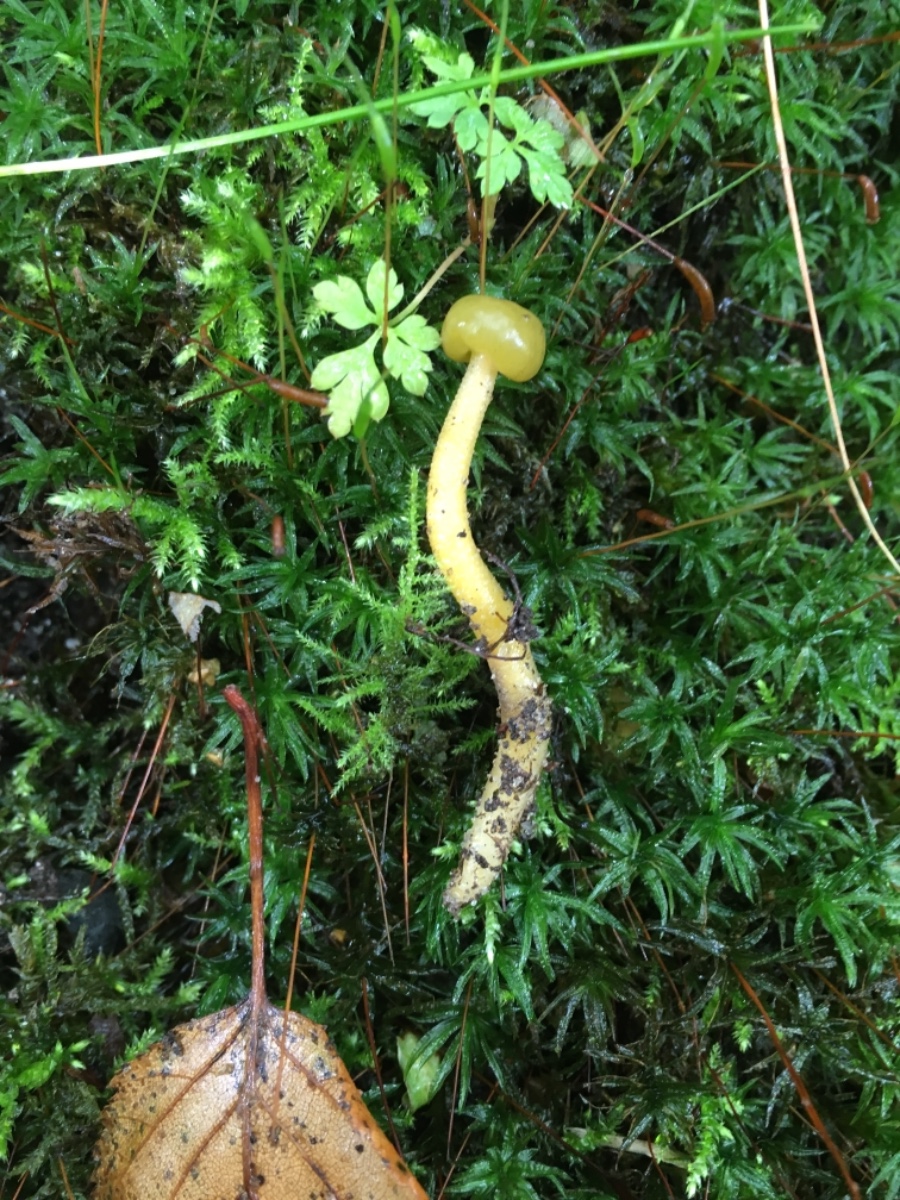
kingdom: Fungi
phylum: Ascomycota
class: Leotiomycetes
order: Leotiales
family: Leotiaceae
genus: Leotia
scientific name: Leotia lubrica
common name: ravsvamp
